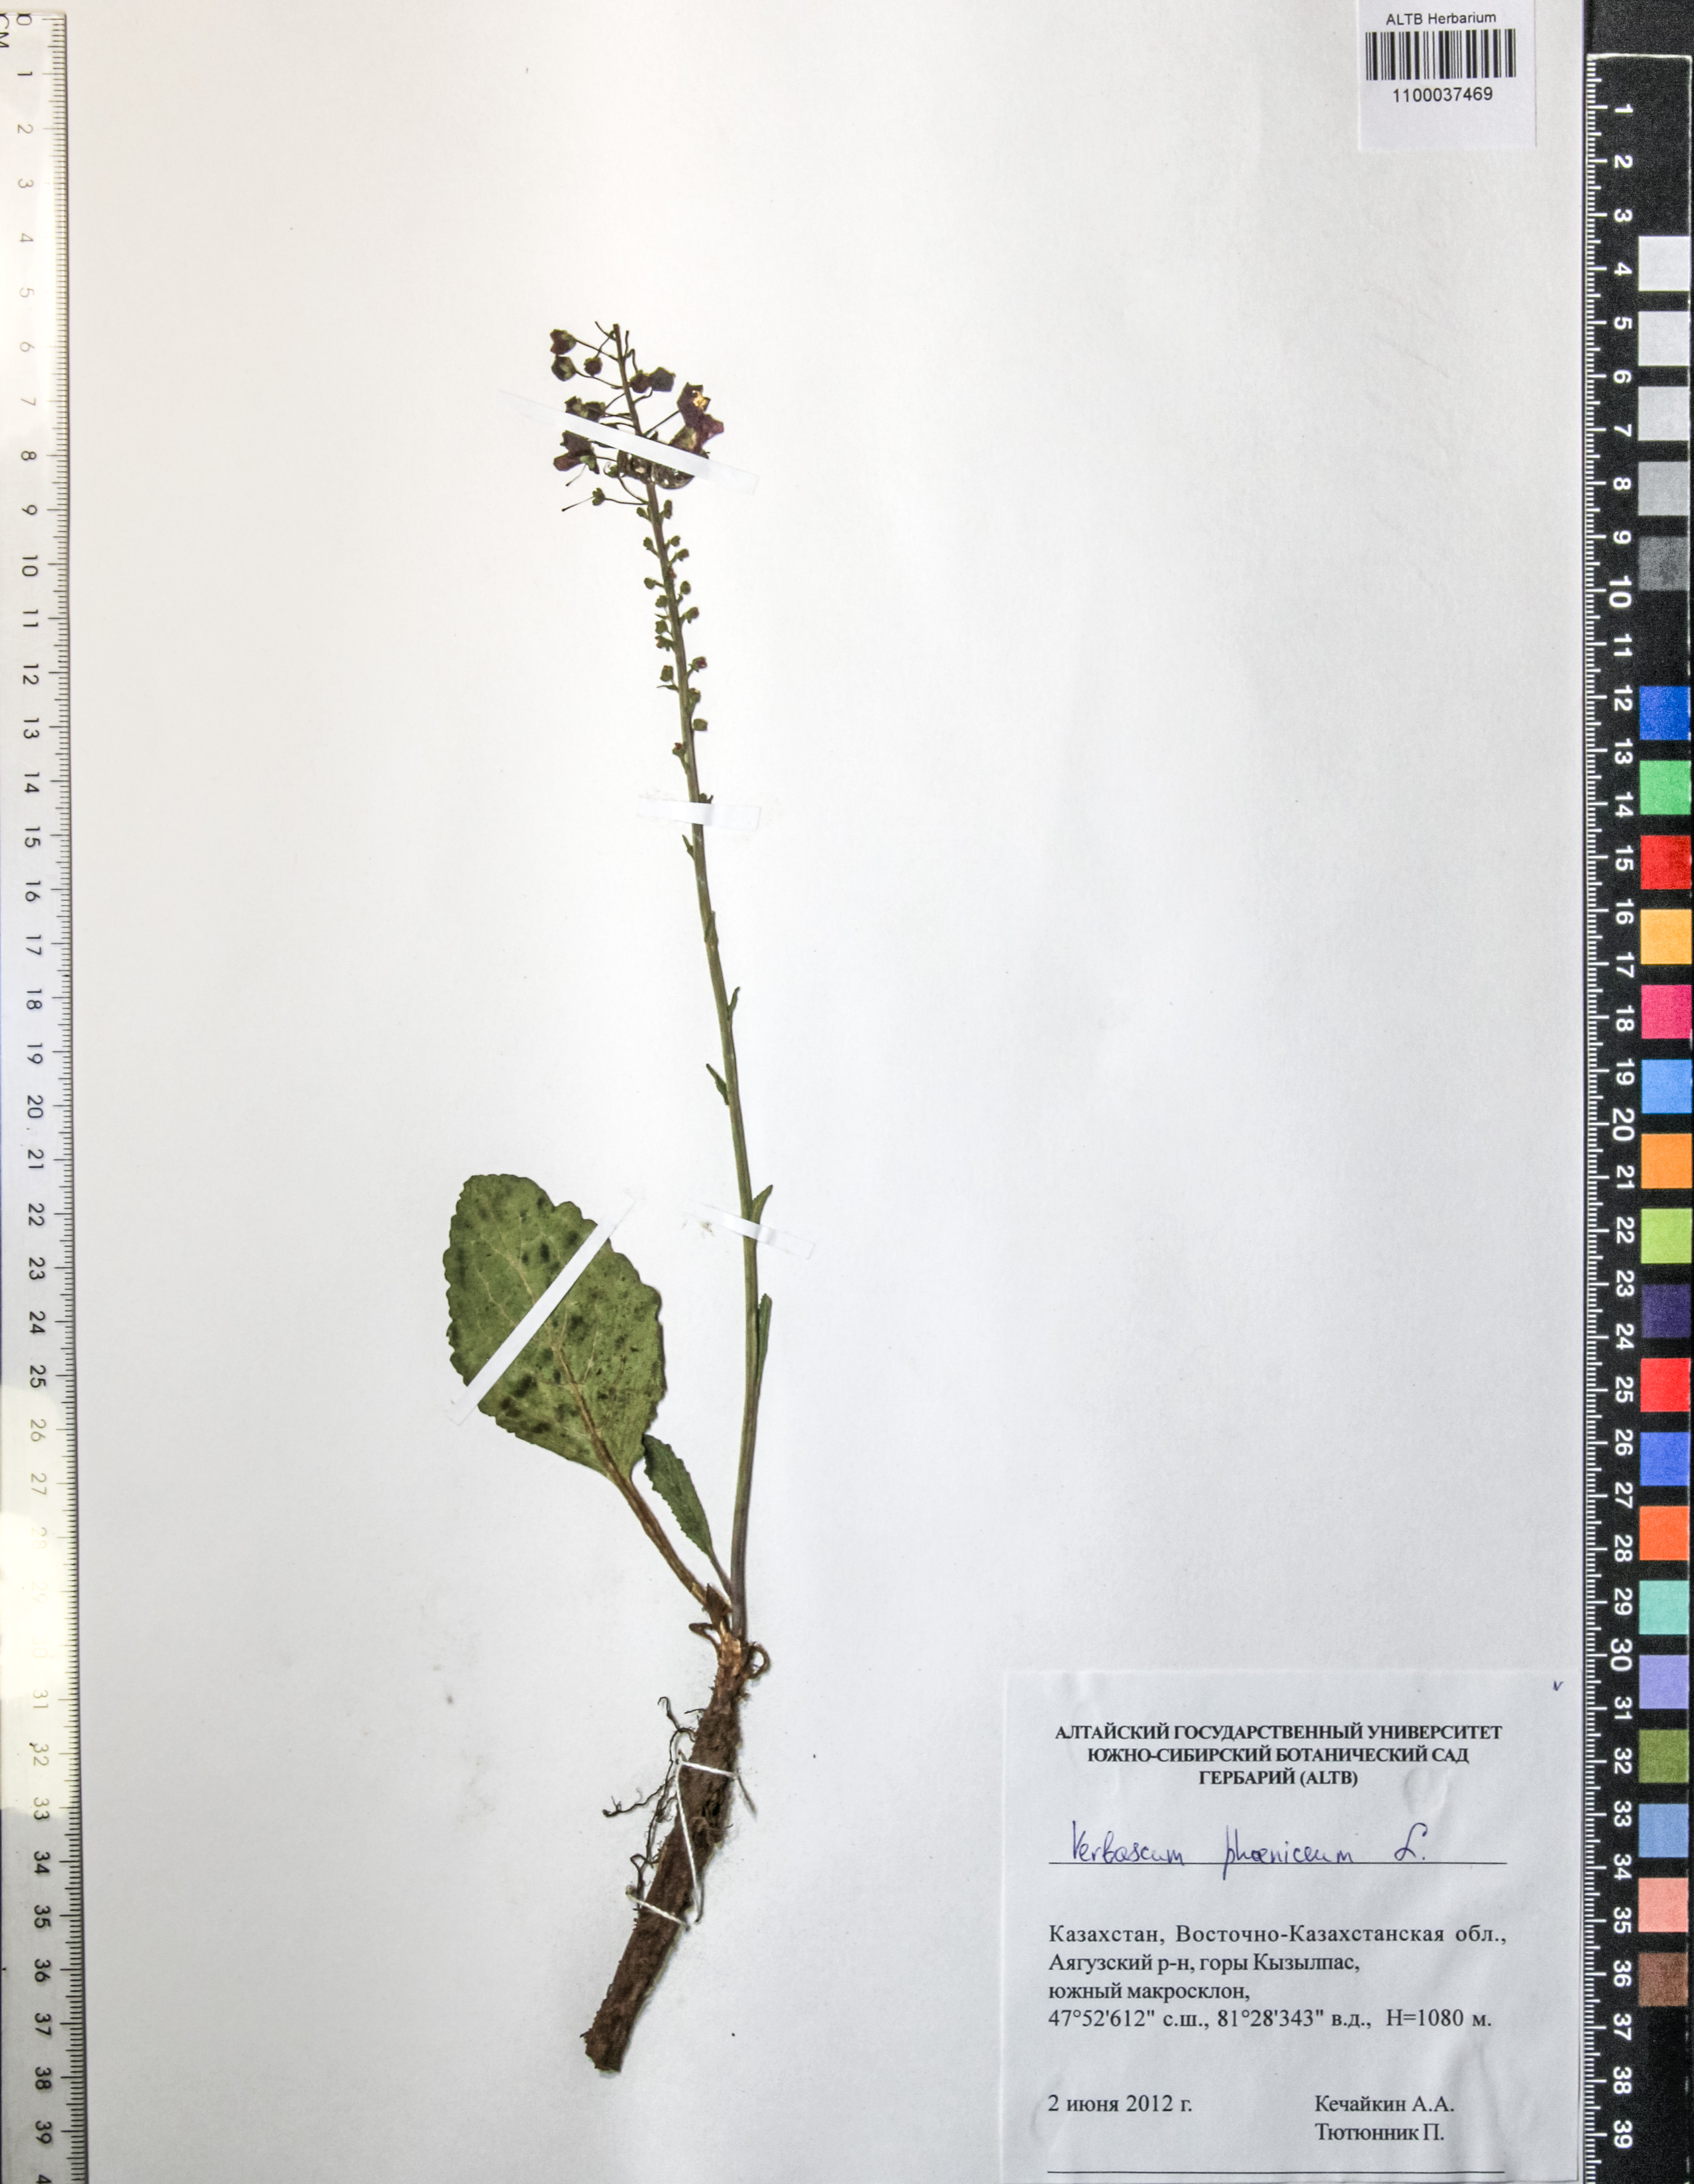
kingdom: Plantae
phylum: Tracheophyta
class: Magnoliopsida
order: Lamiales
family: Scrophulariaceae
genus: Verbascum
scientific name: Verbascum phoeniceum
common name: Purple mullein
